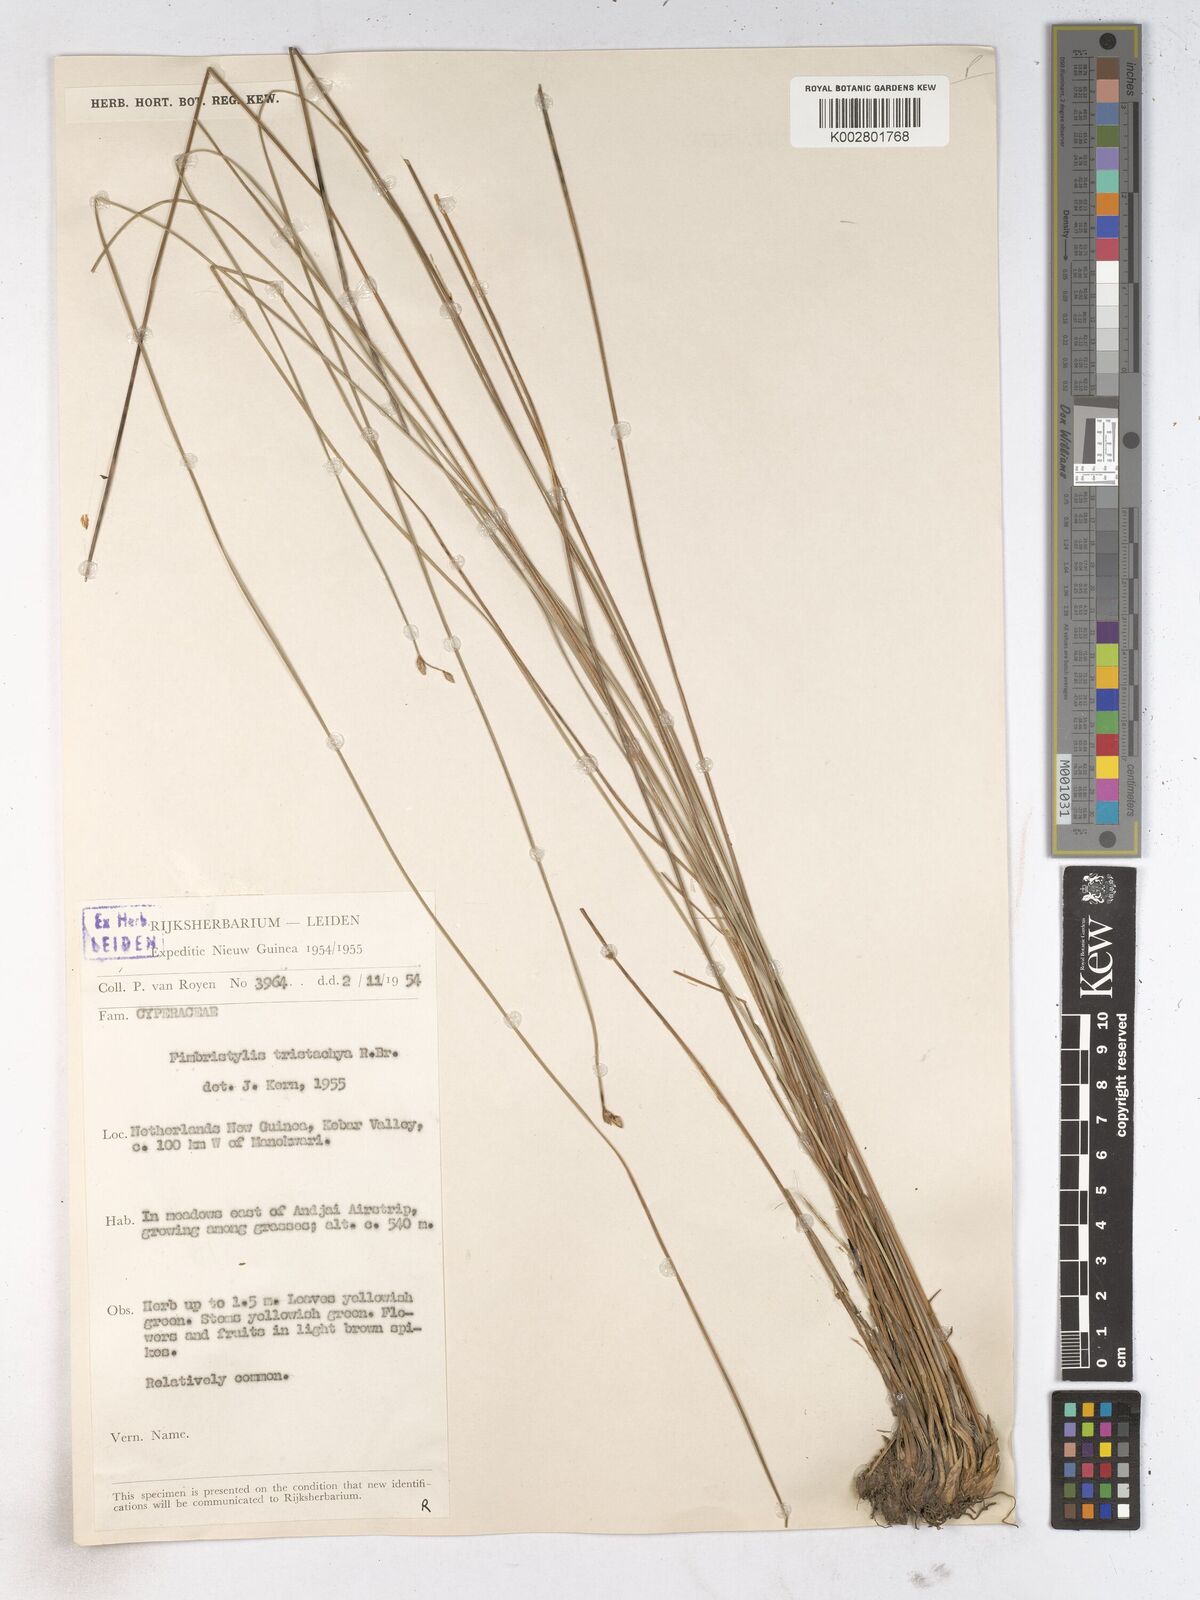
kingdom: Plantae
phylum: Tracheophyta
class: Liliopsida
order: Poales
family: Cyperaceae
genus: Fimbristylis
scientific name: Fimbristylis tristachya
